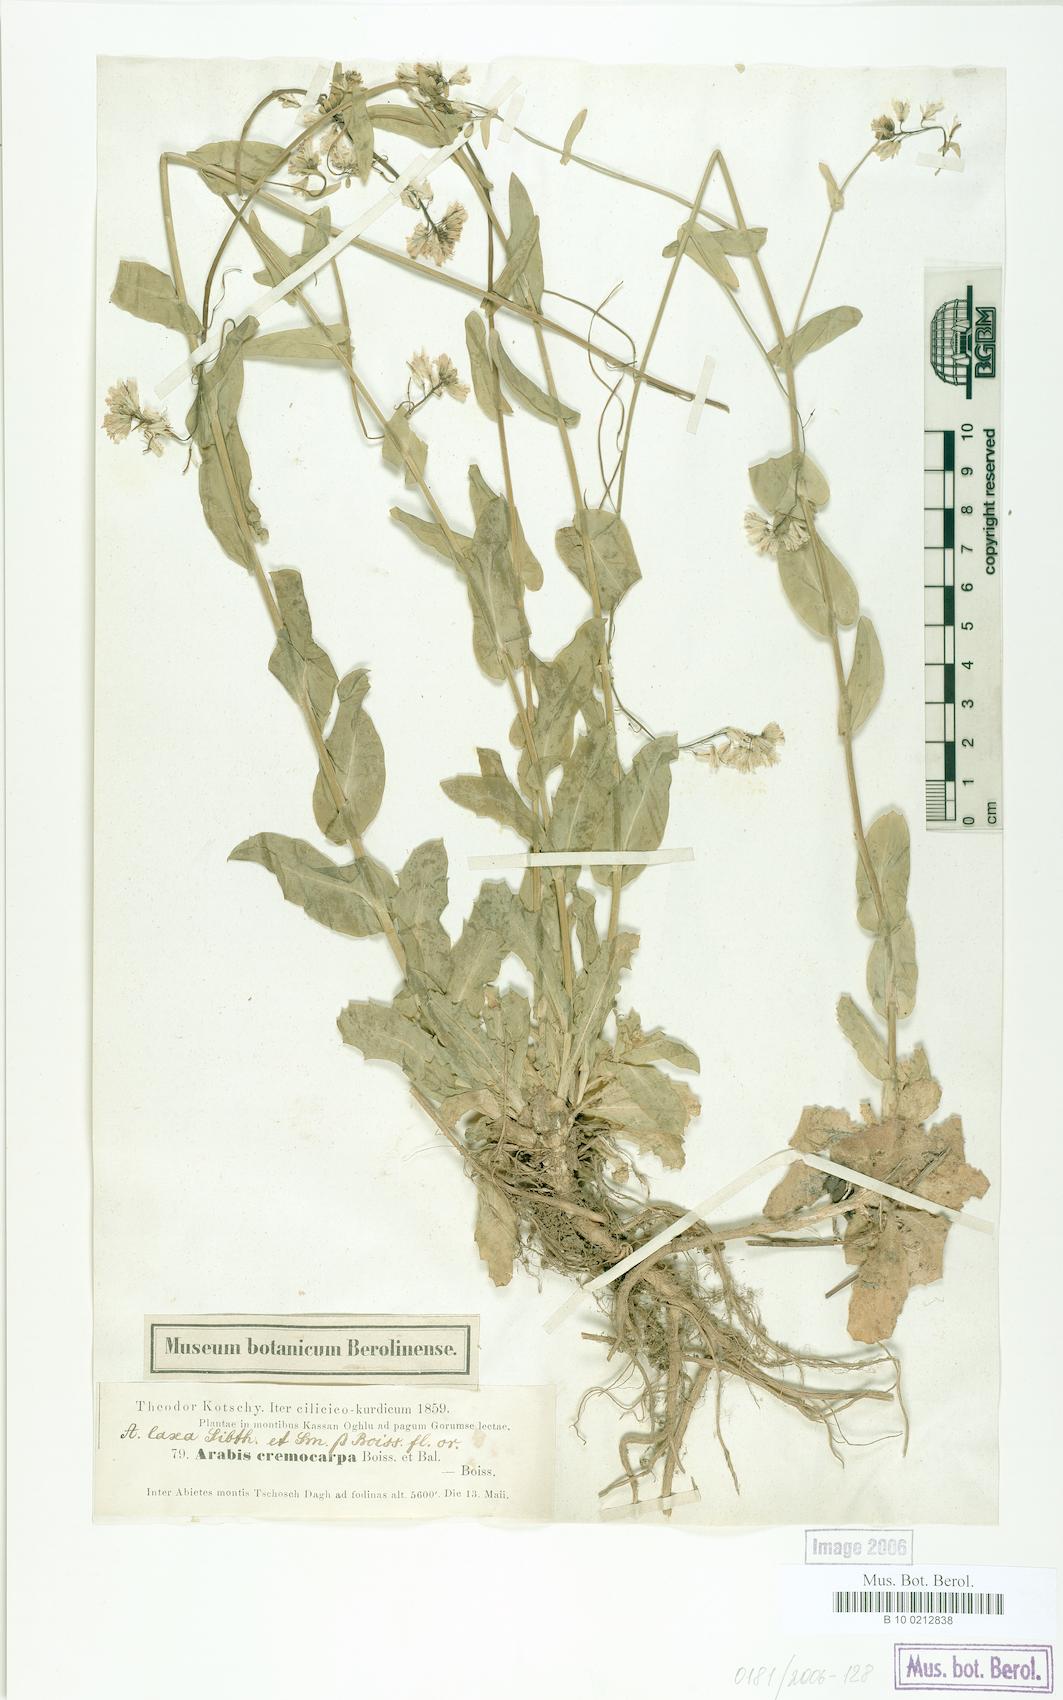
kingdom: Plantae
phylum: Tracheophyta
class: Magnoliopsida
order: Brassicales
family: Brassicaceae
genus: Turritis
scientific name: Turritis laxa
